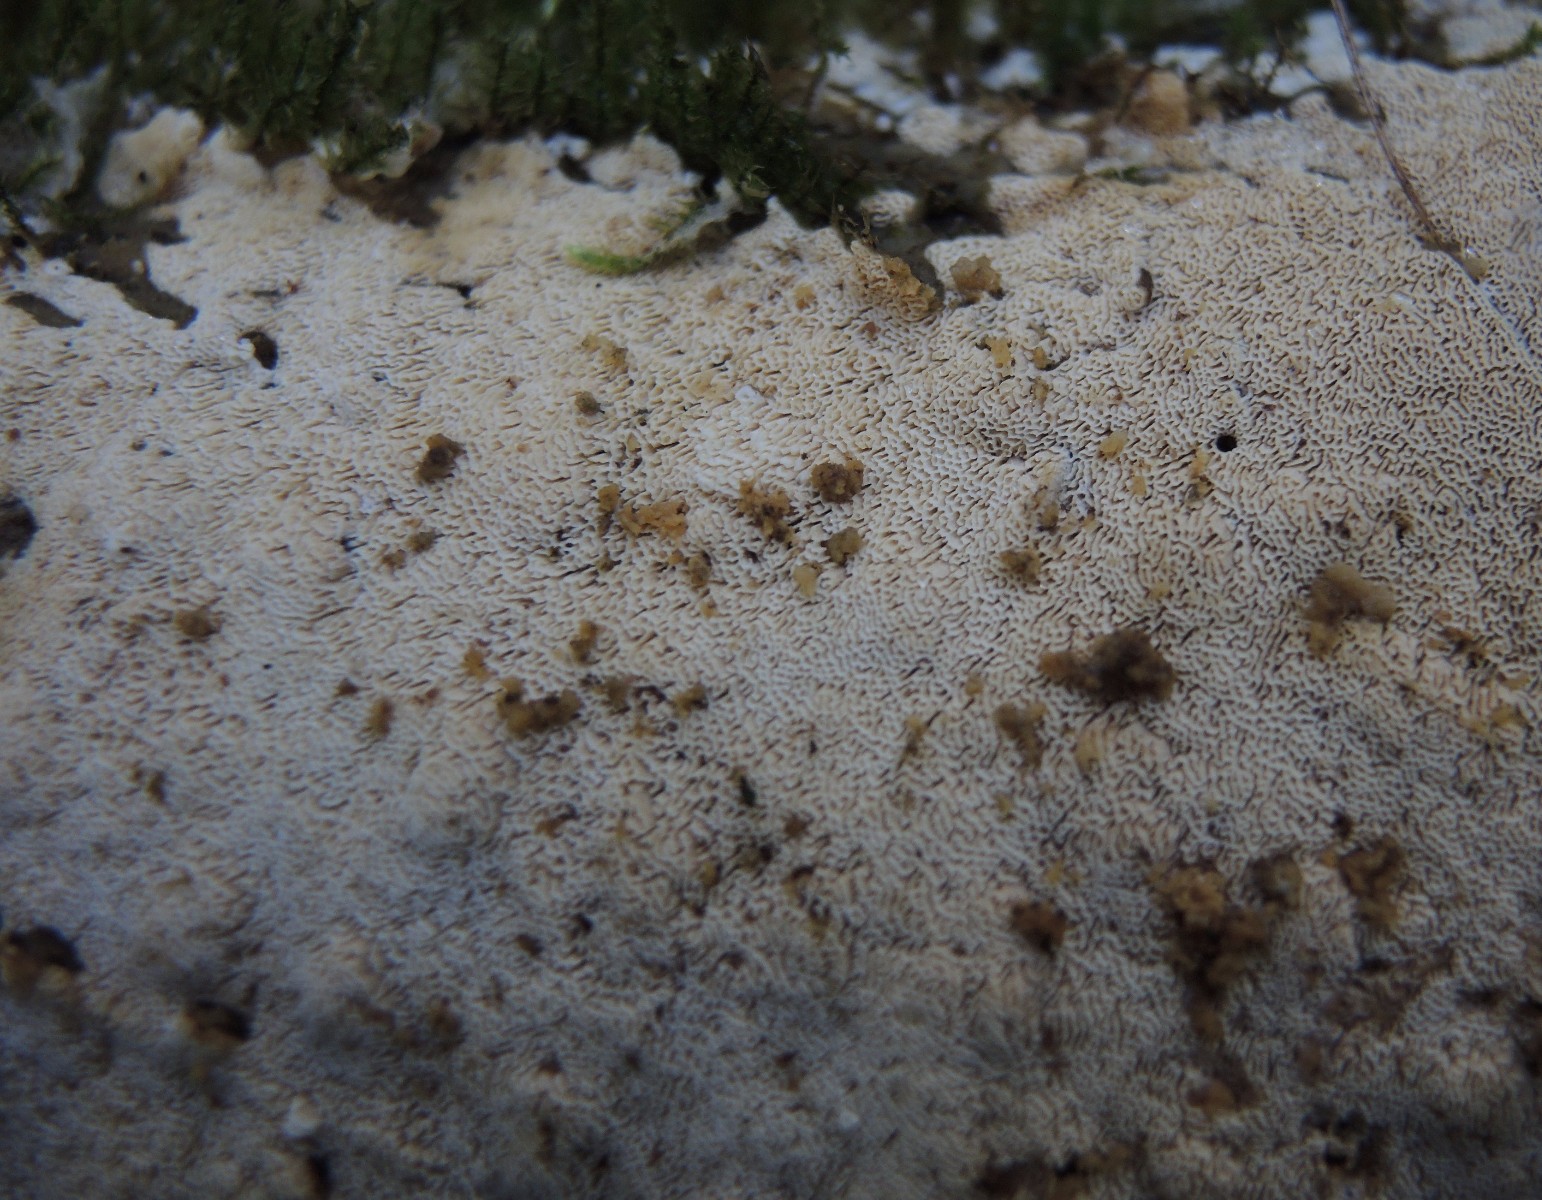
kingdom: Fungi
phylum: Basidiomycota
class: Agaricomycetes
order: Hymenochaetales
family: Schizoporaceae
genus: Xylodon
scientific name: Xylodon subtropicus
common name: labyrint-tandsvamp
